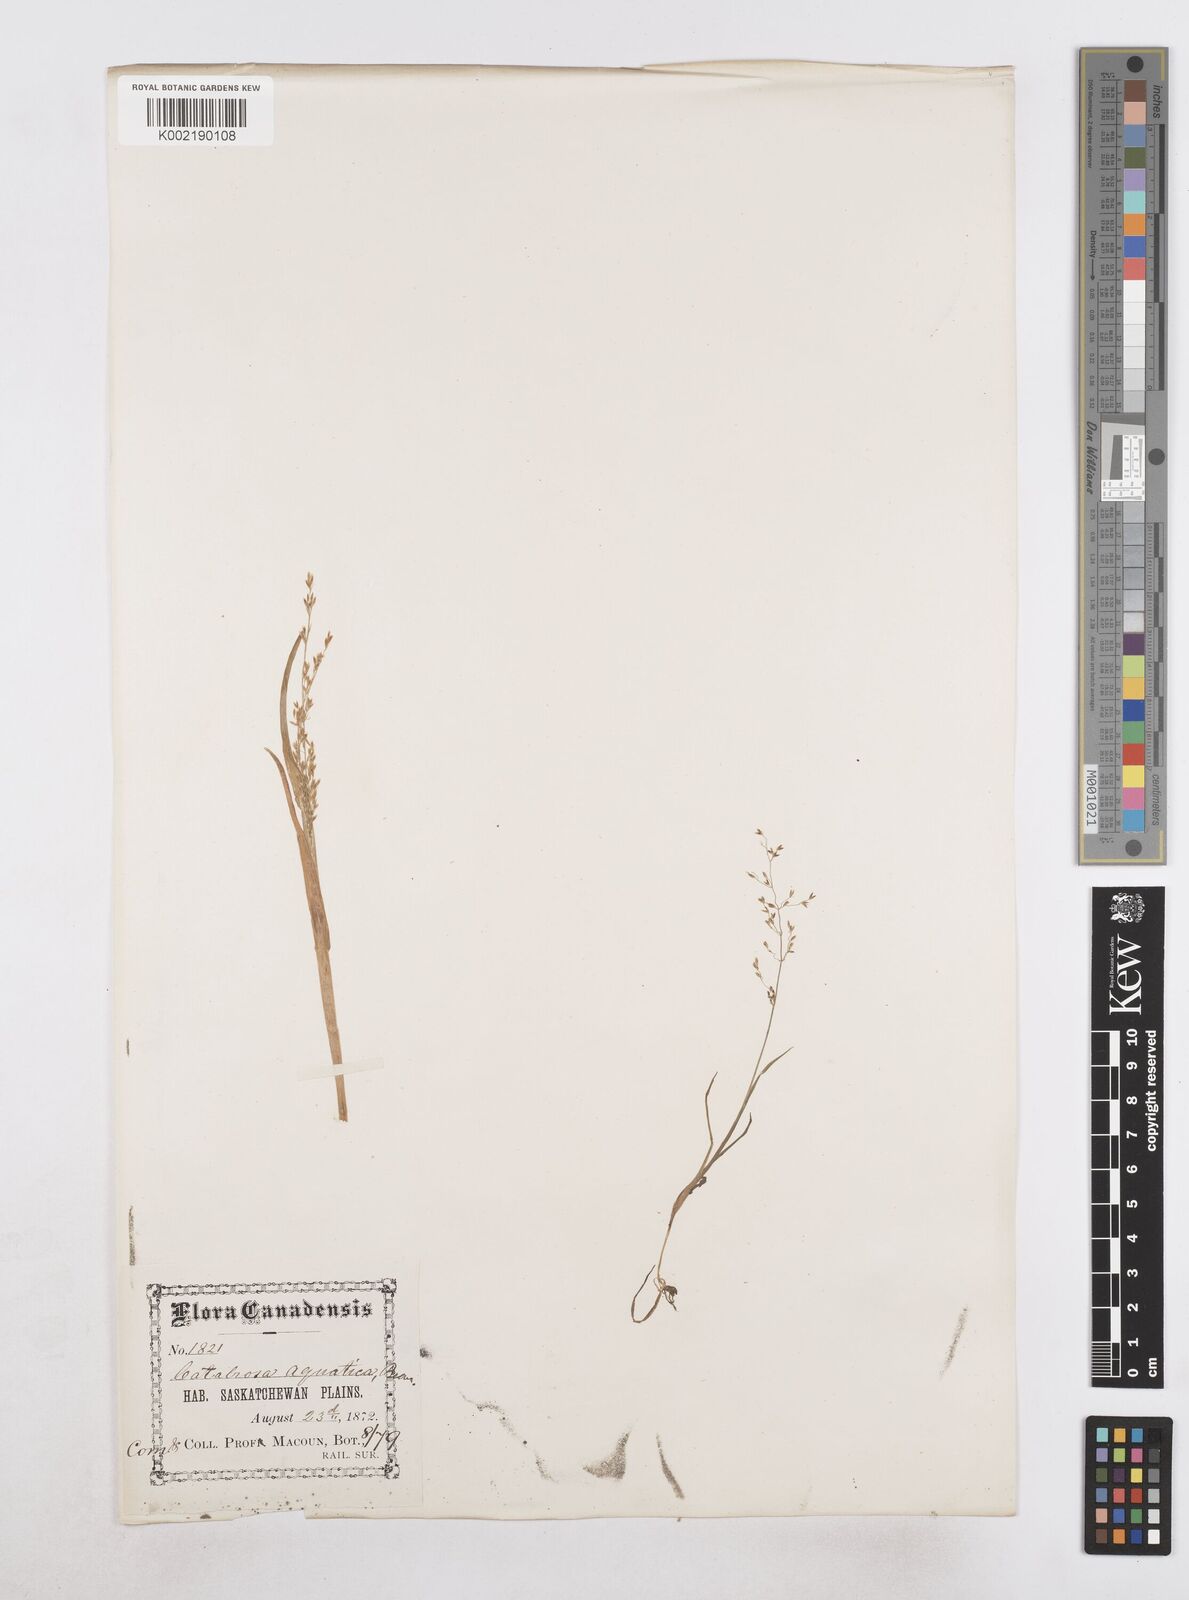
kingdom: Plantae
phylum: Tracheophyta
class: Liliopsida
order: Poales
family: Poaceae
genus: Catabrosa
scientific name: Catabrosa aquatica
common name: Whorl-grass
